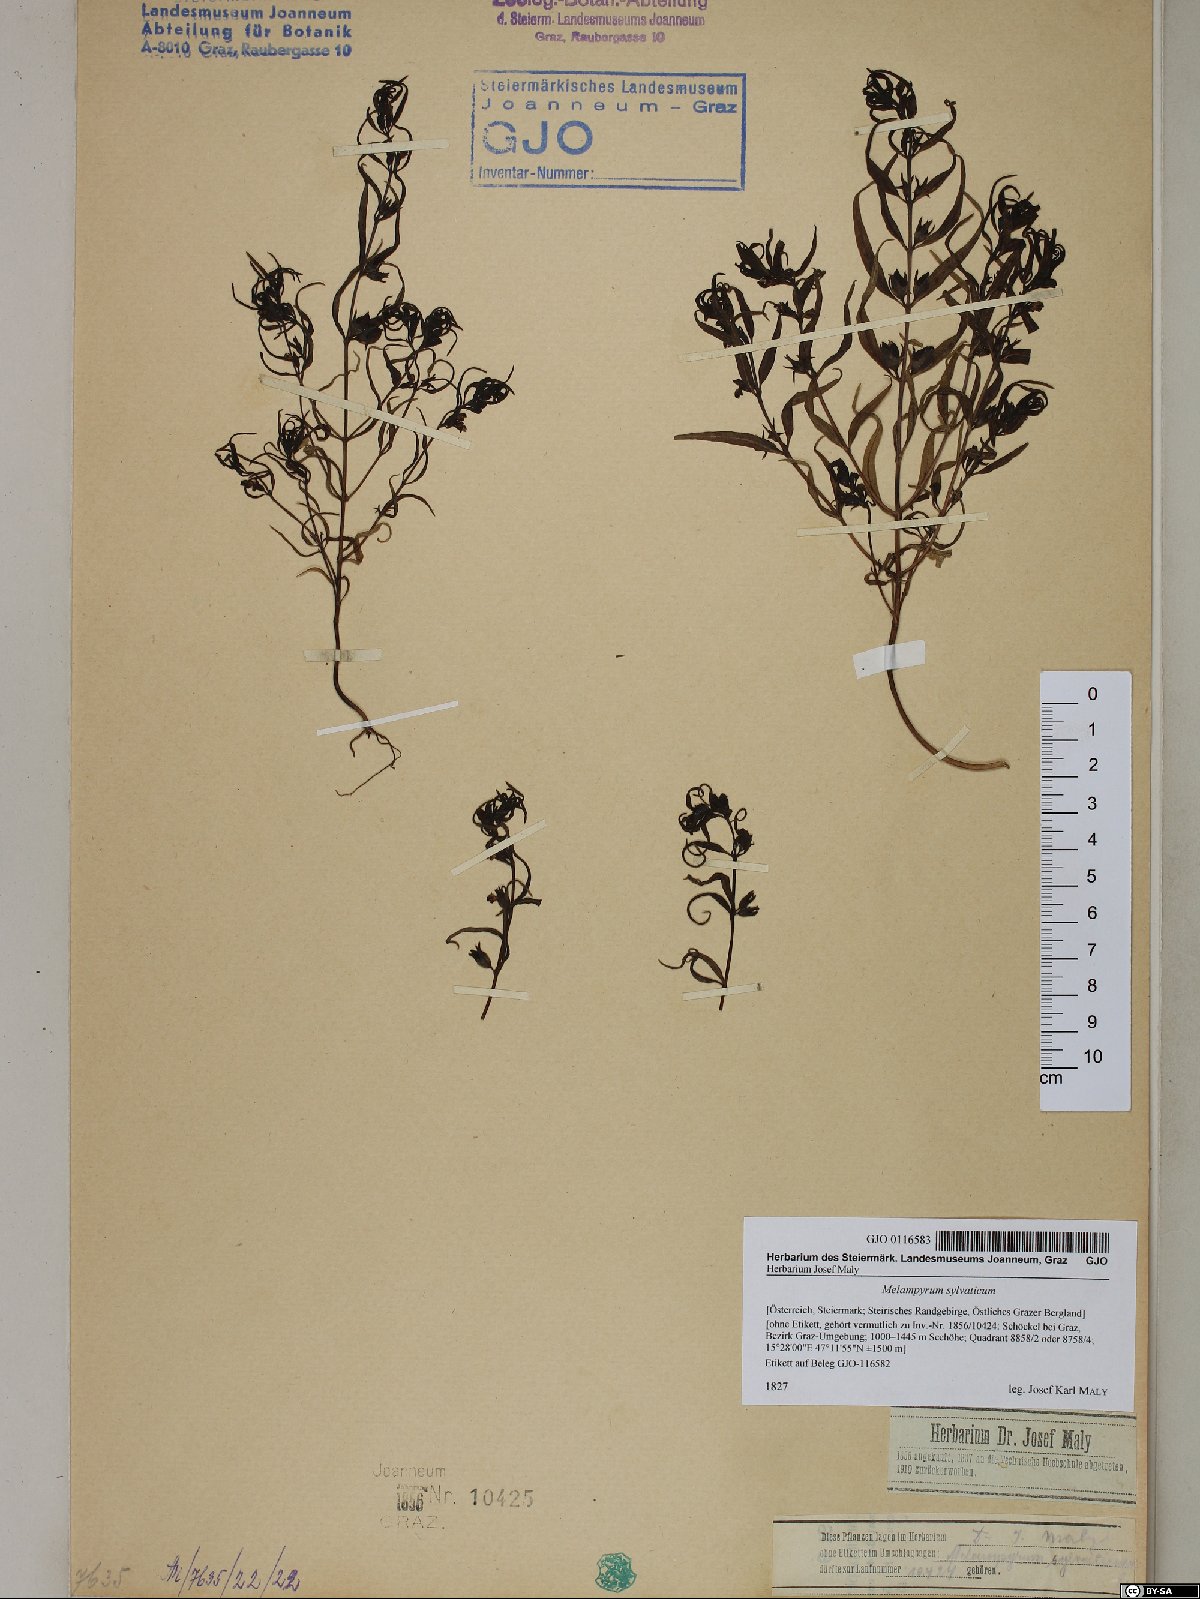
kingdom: Plantae
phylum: Tracheophyta
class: Magnoliopsida
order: Lamiales
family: Orobanchaceae
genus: Melampyrum
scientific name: Melampyrum sylvaticum
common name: Small cow-wheat
